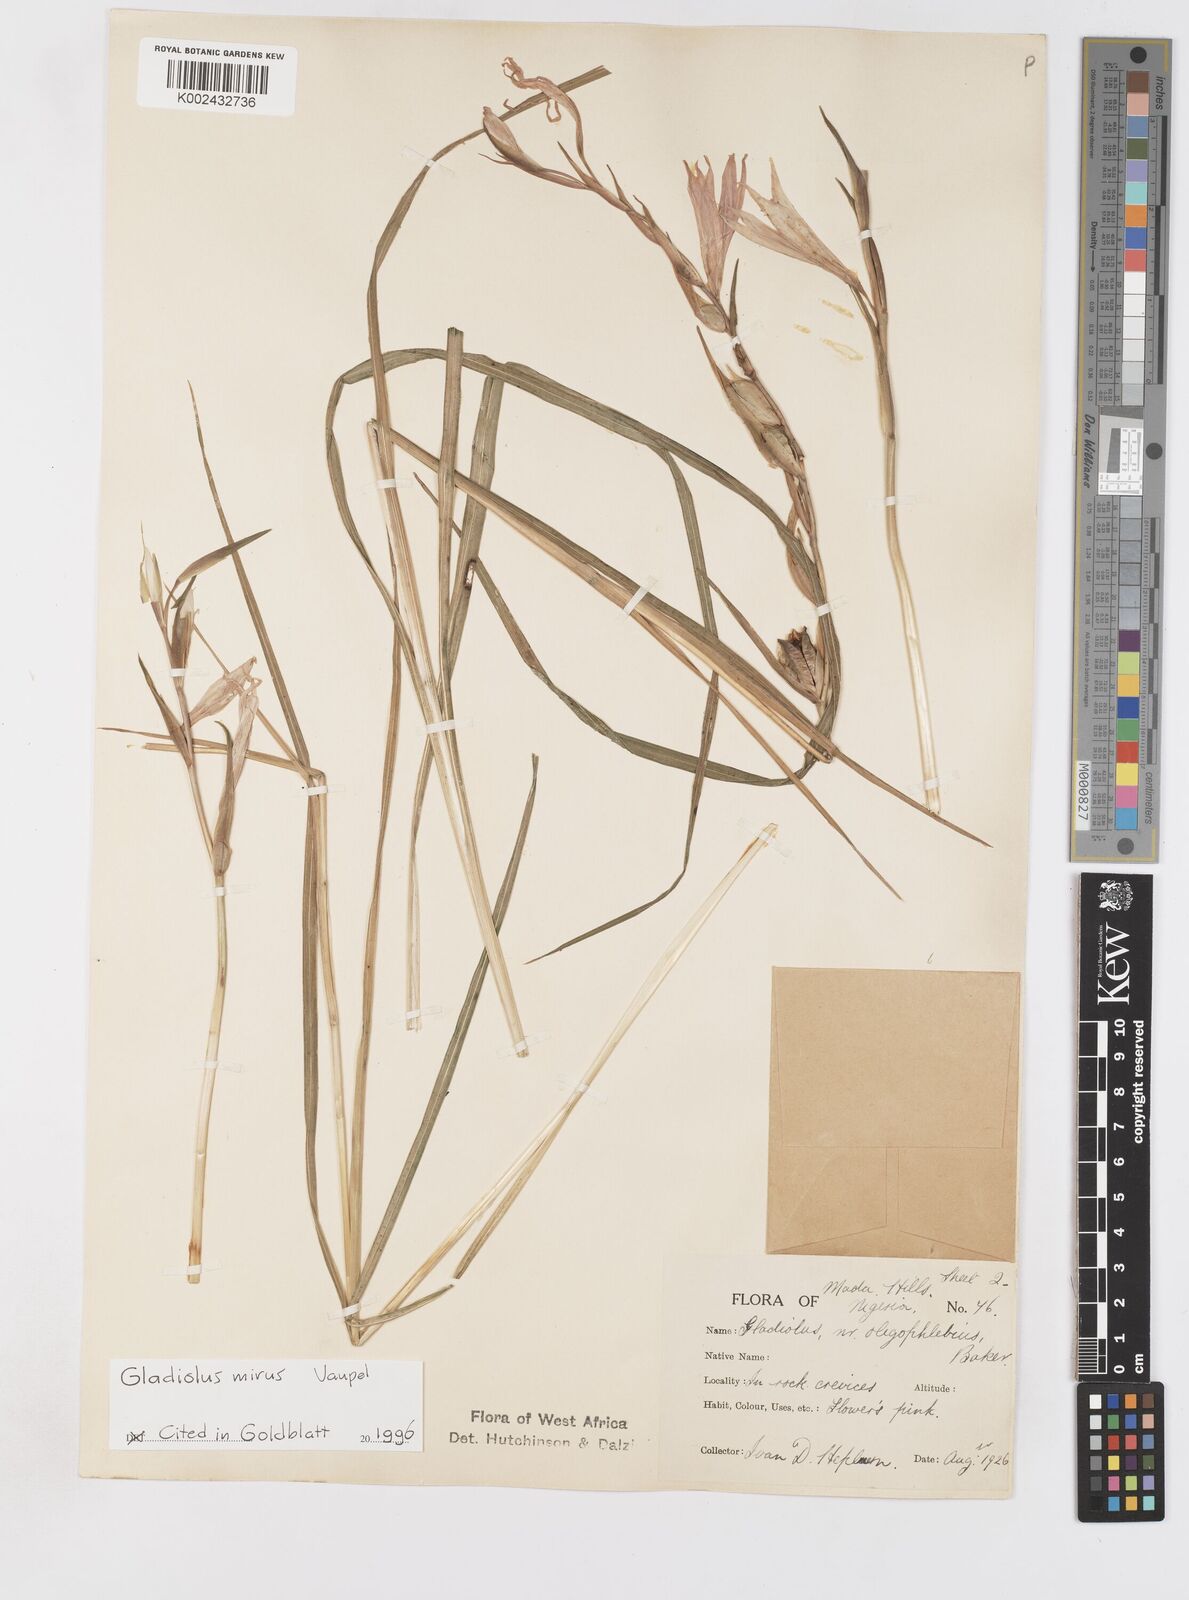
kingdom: Plantae
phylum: Tracheophyta
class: Liliopsida
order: Asparagales
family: Iridaceae
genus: Gladiolus
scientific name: Gladiolus mirus
